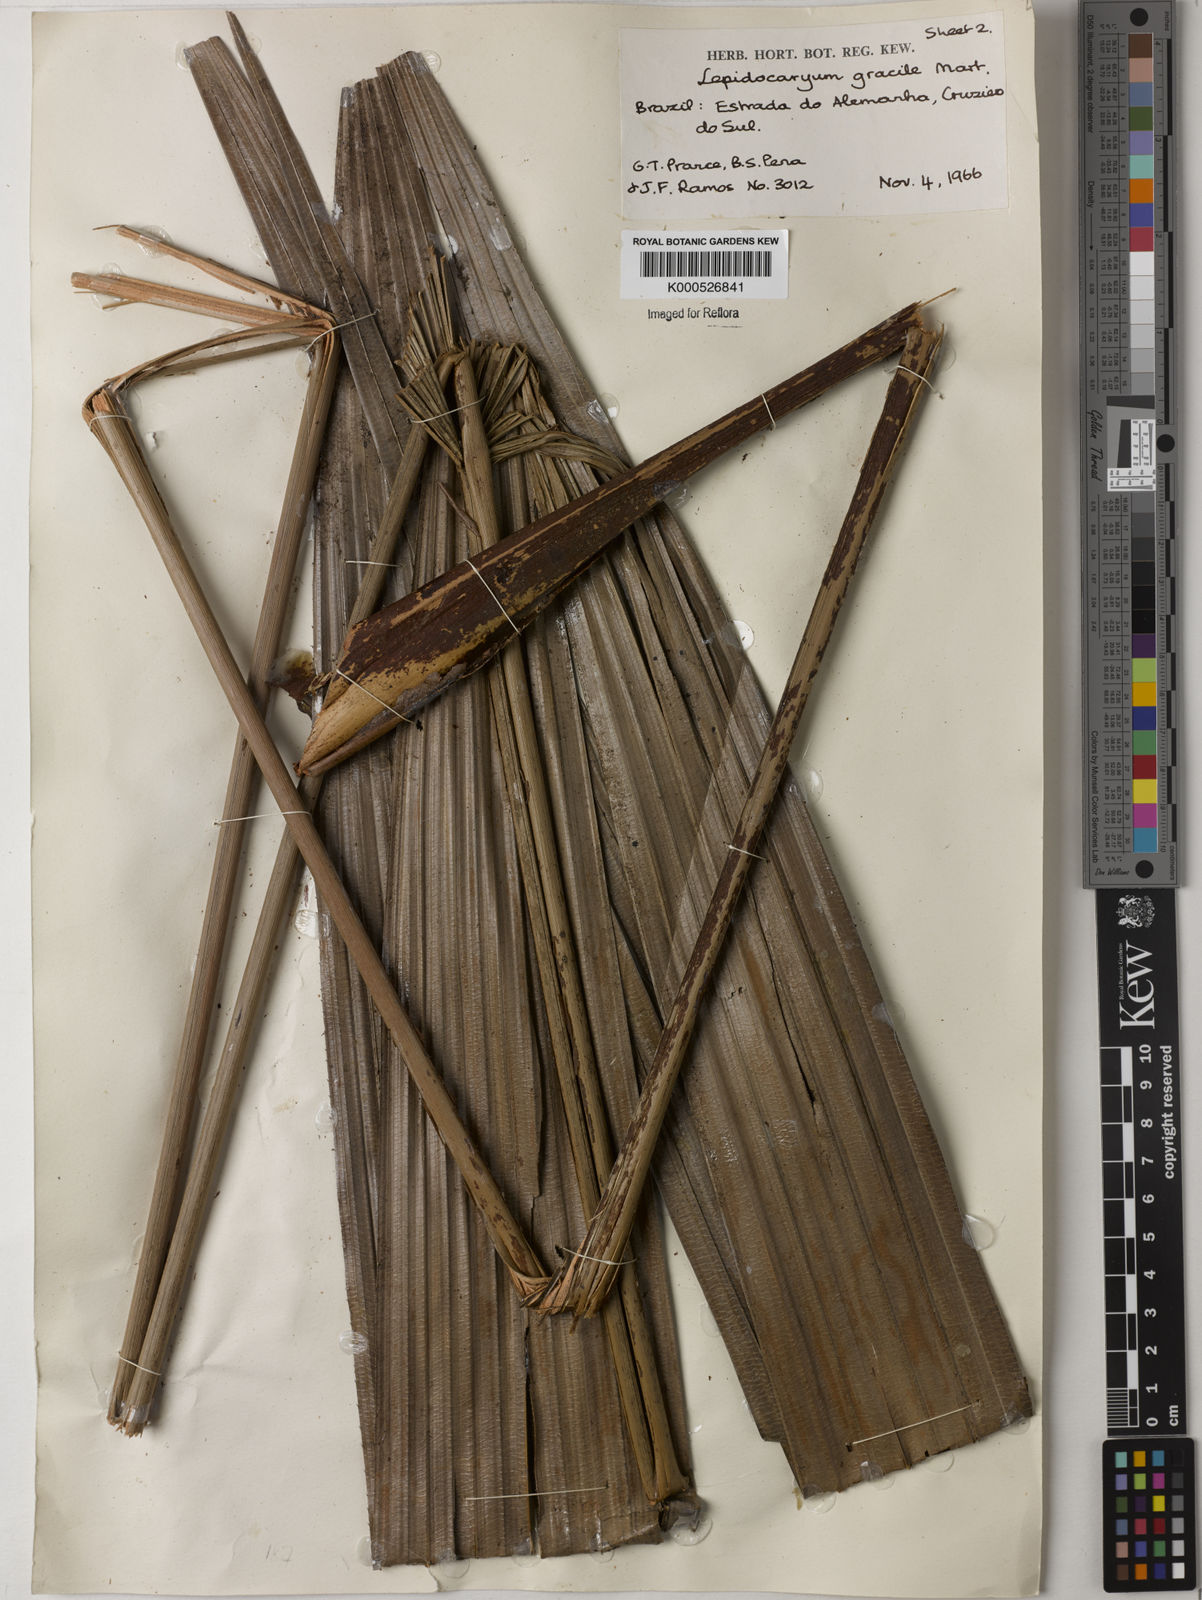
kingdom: Plantae
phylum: Tracheophyta
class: Liliopsida
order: Arecales
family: Arecaceae
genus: Lepidocaryum
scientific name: Lepidocaryum tenue
